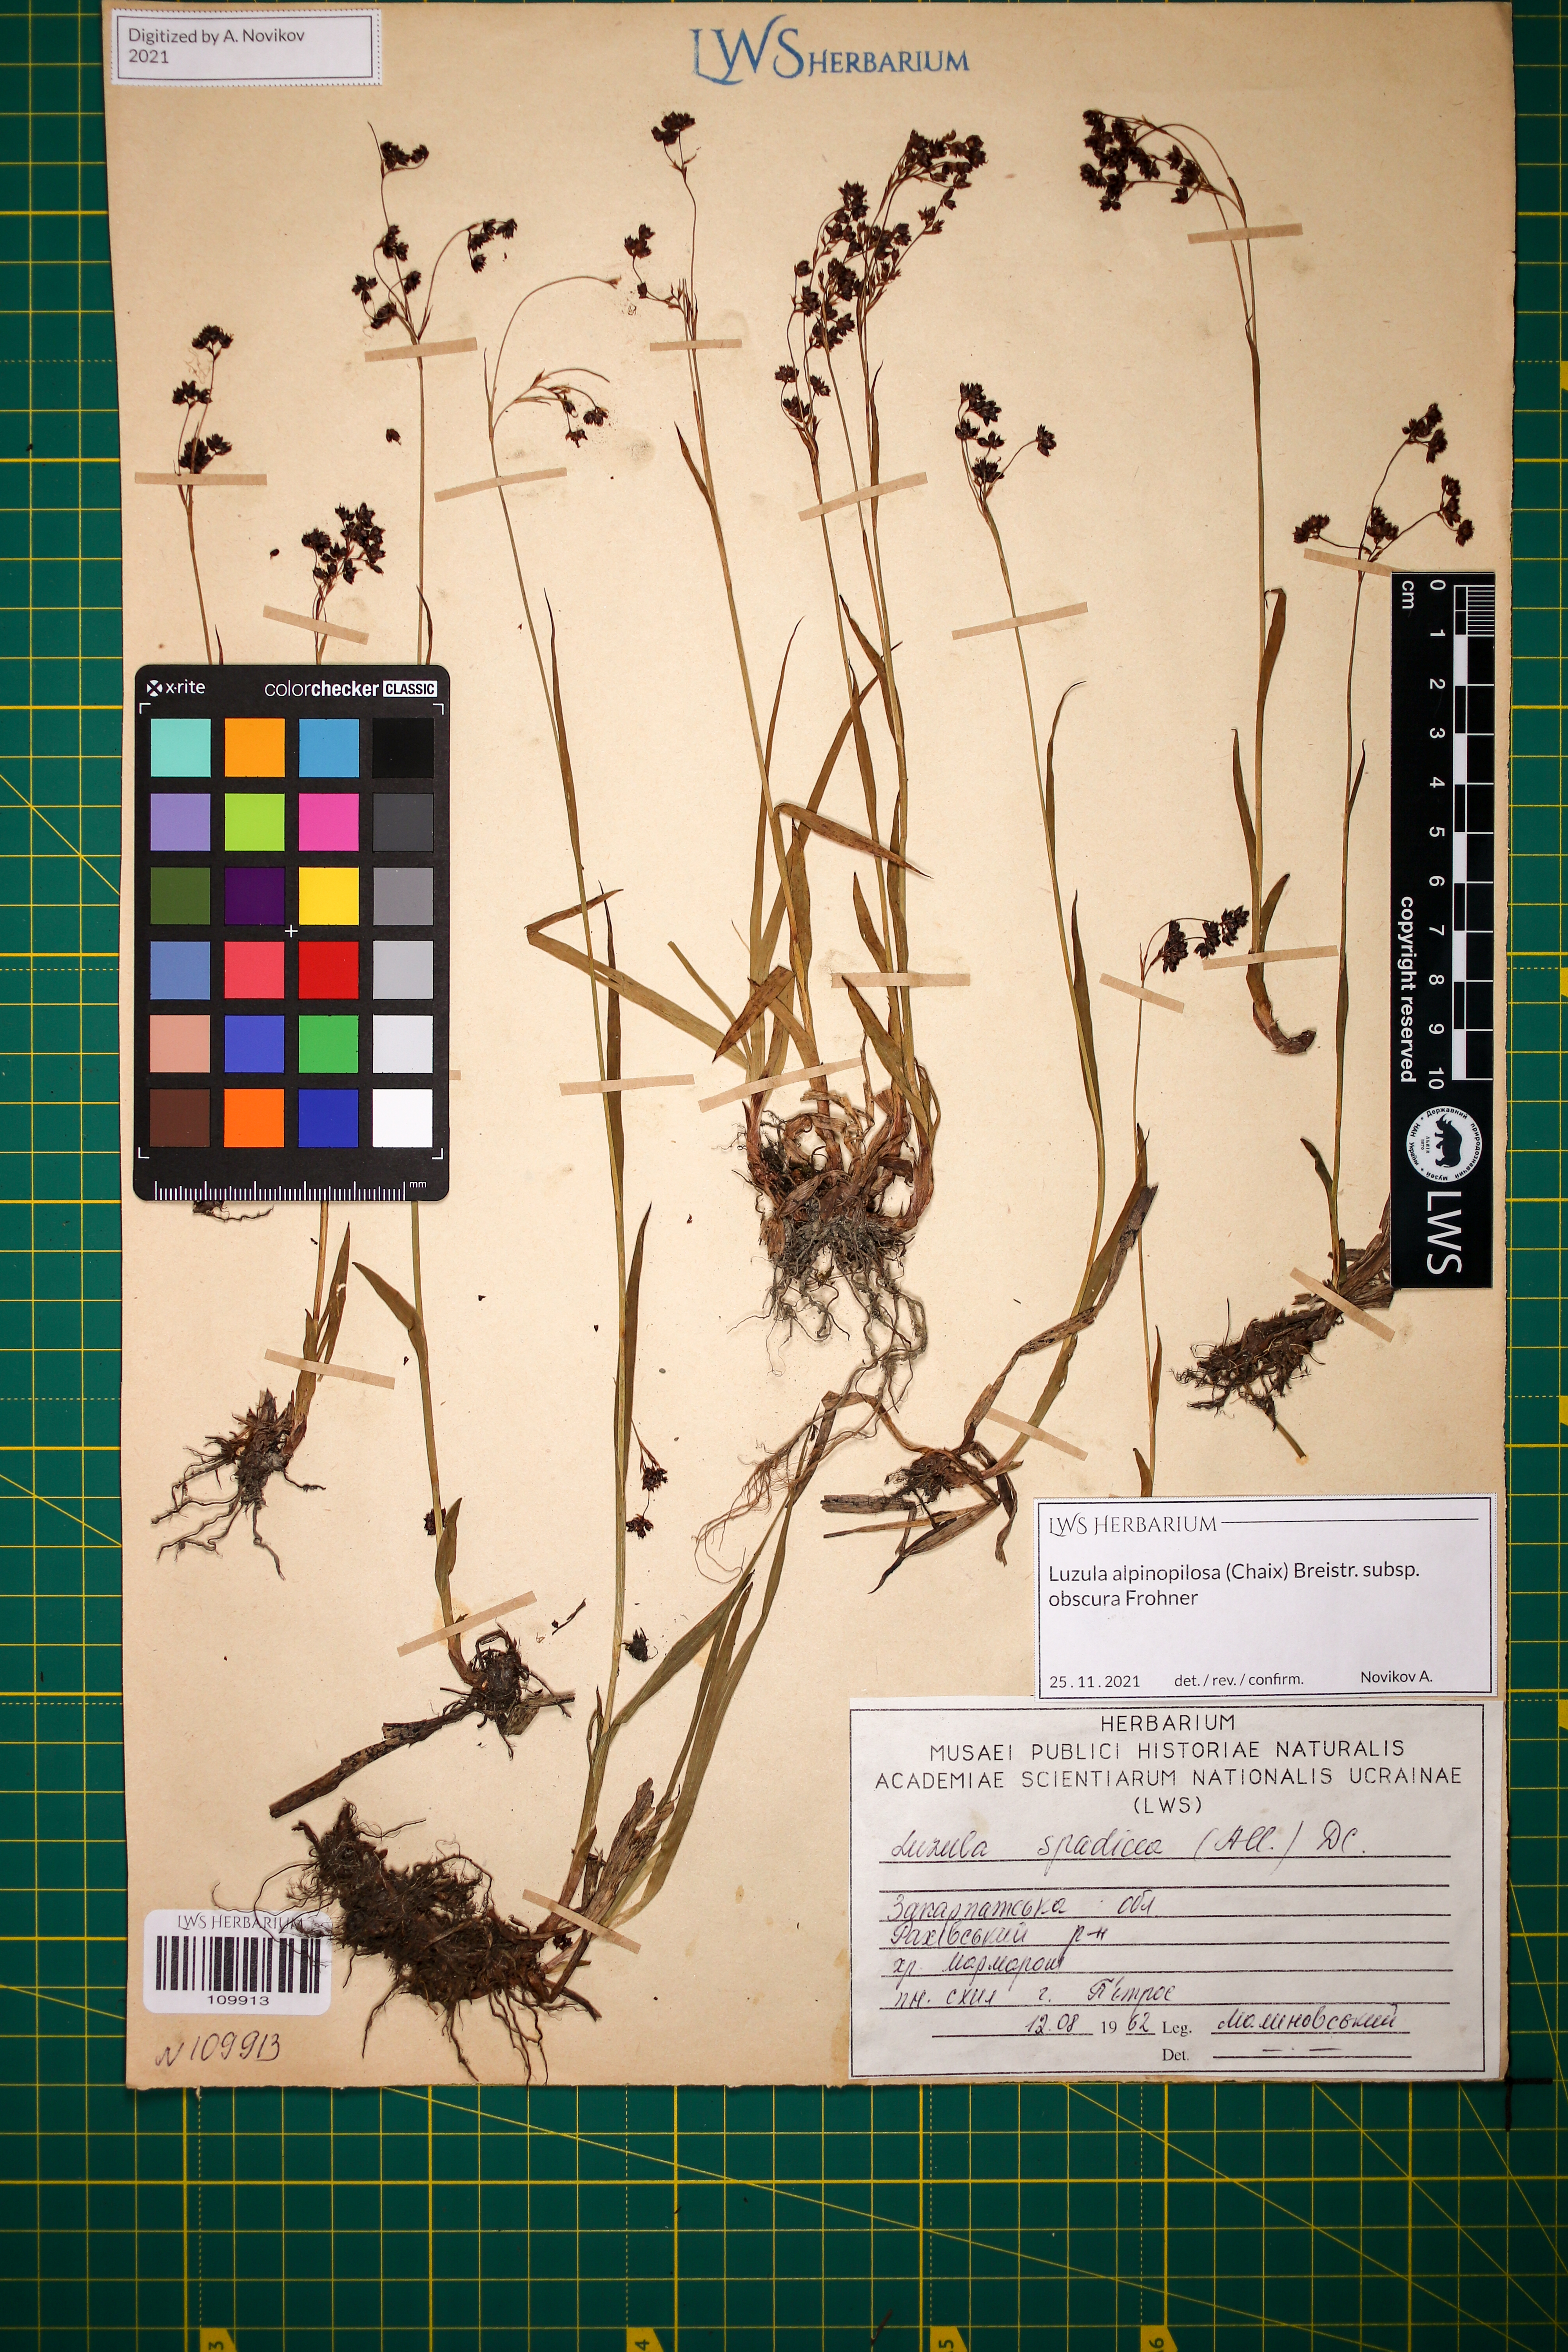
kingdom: Plantae
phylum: Tracheophyta
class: Liliopsida
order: Poales
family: Juncaceae
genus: Luzula
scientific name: Luzula alpinopilosa
